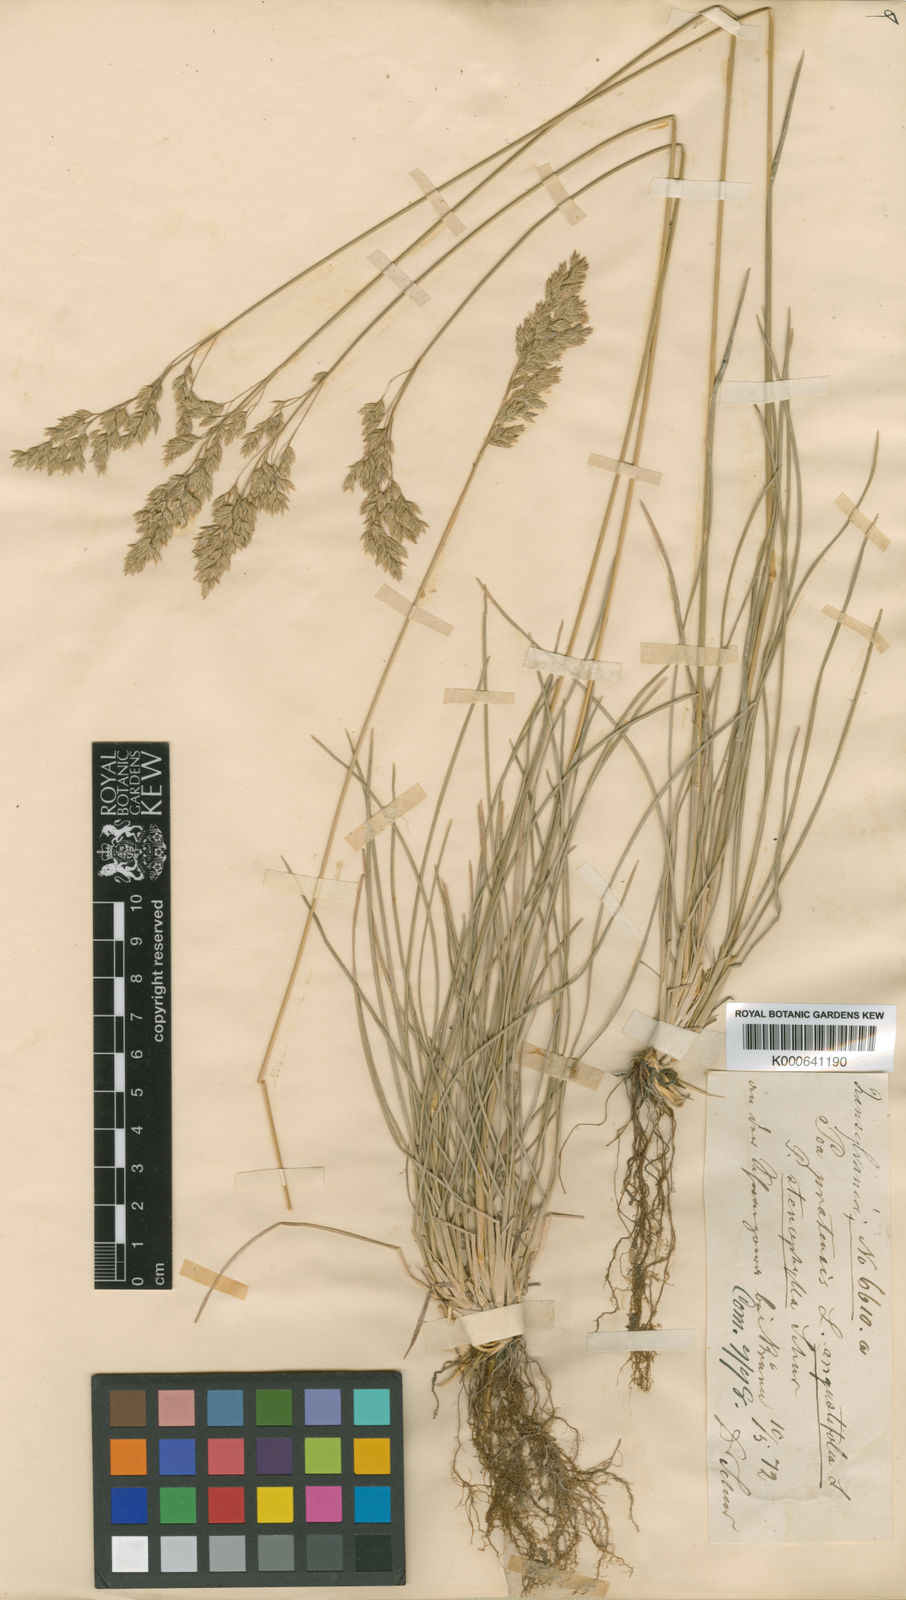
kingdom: Plantae
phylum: Tracheophyta
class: Liliopsida
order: Poales
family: Poaceae
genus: Poa
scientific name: Poa angustifolia
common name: Narrow-leaved meadow-grass
